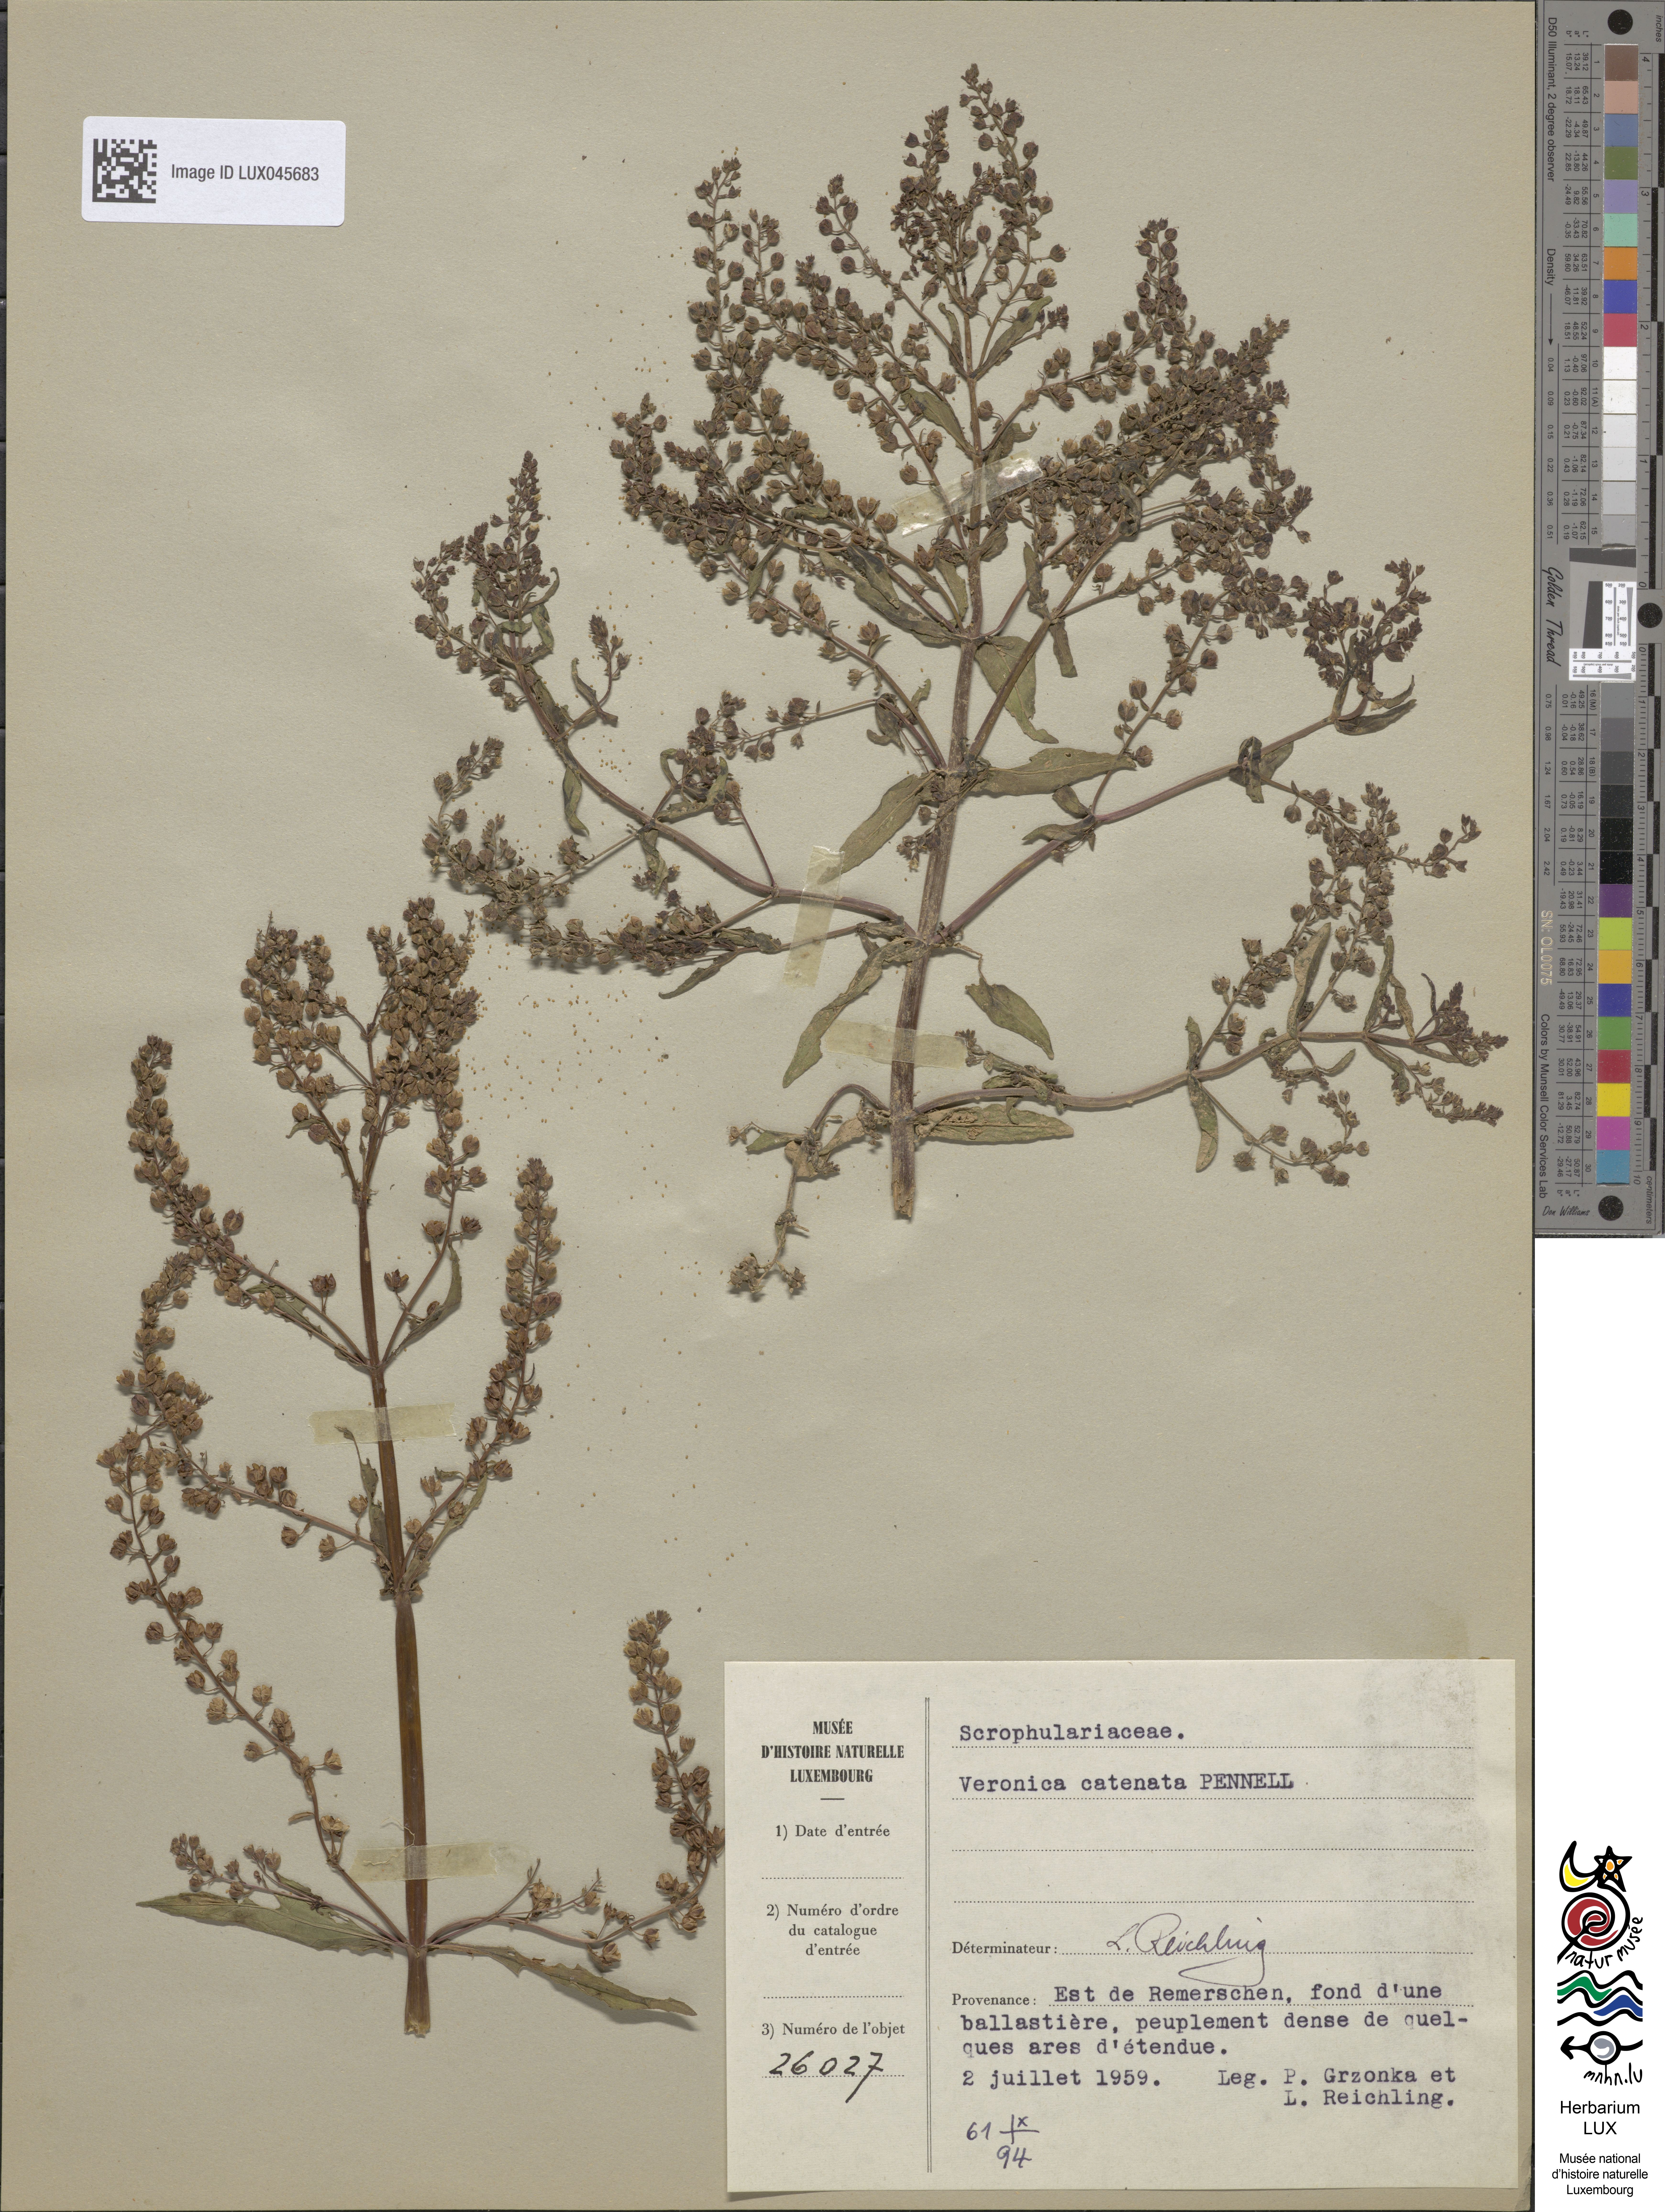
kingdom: Plantae
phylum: Tracheophyta
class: Magnoliopsida
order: Lamiales
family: Plantaginaceae
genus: Veronica
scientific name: Veronica catenata
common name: Pink water-speedwell
